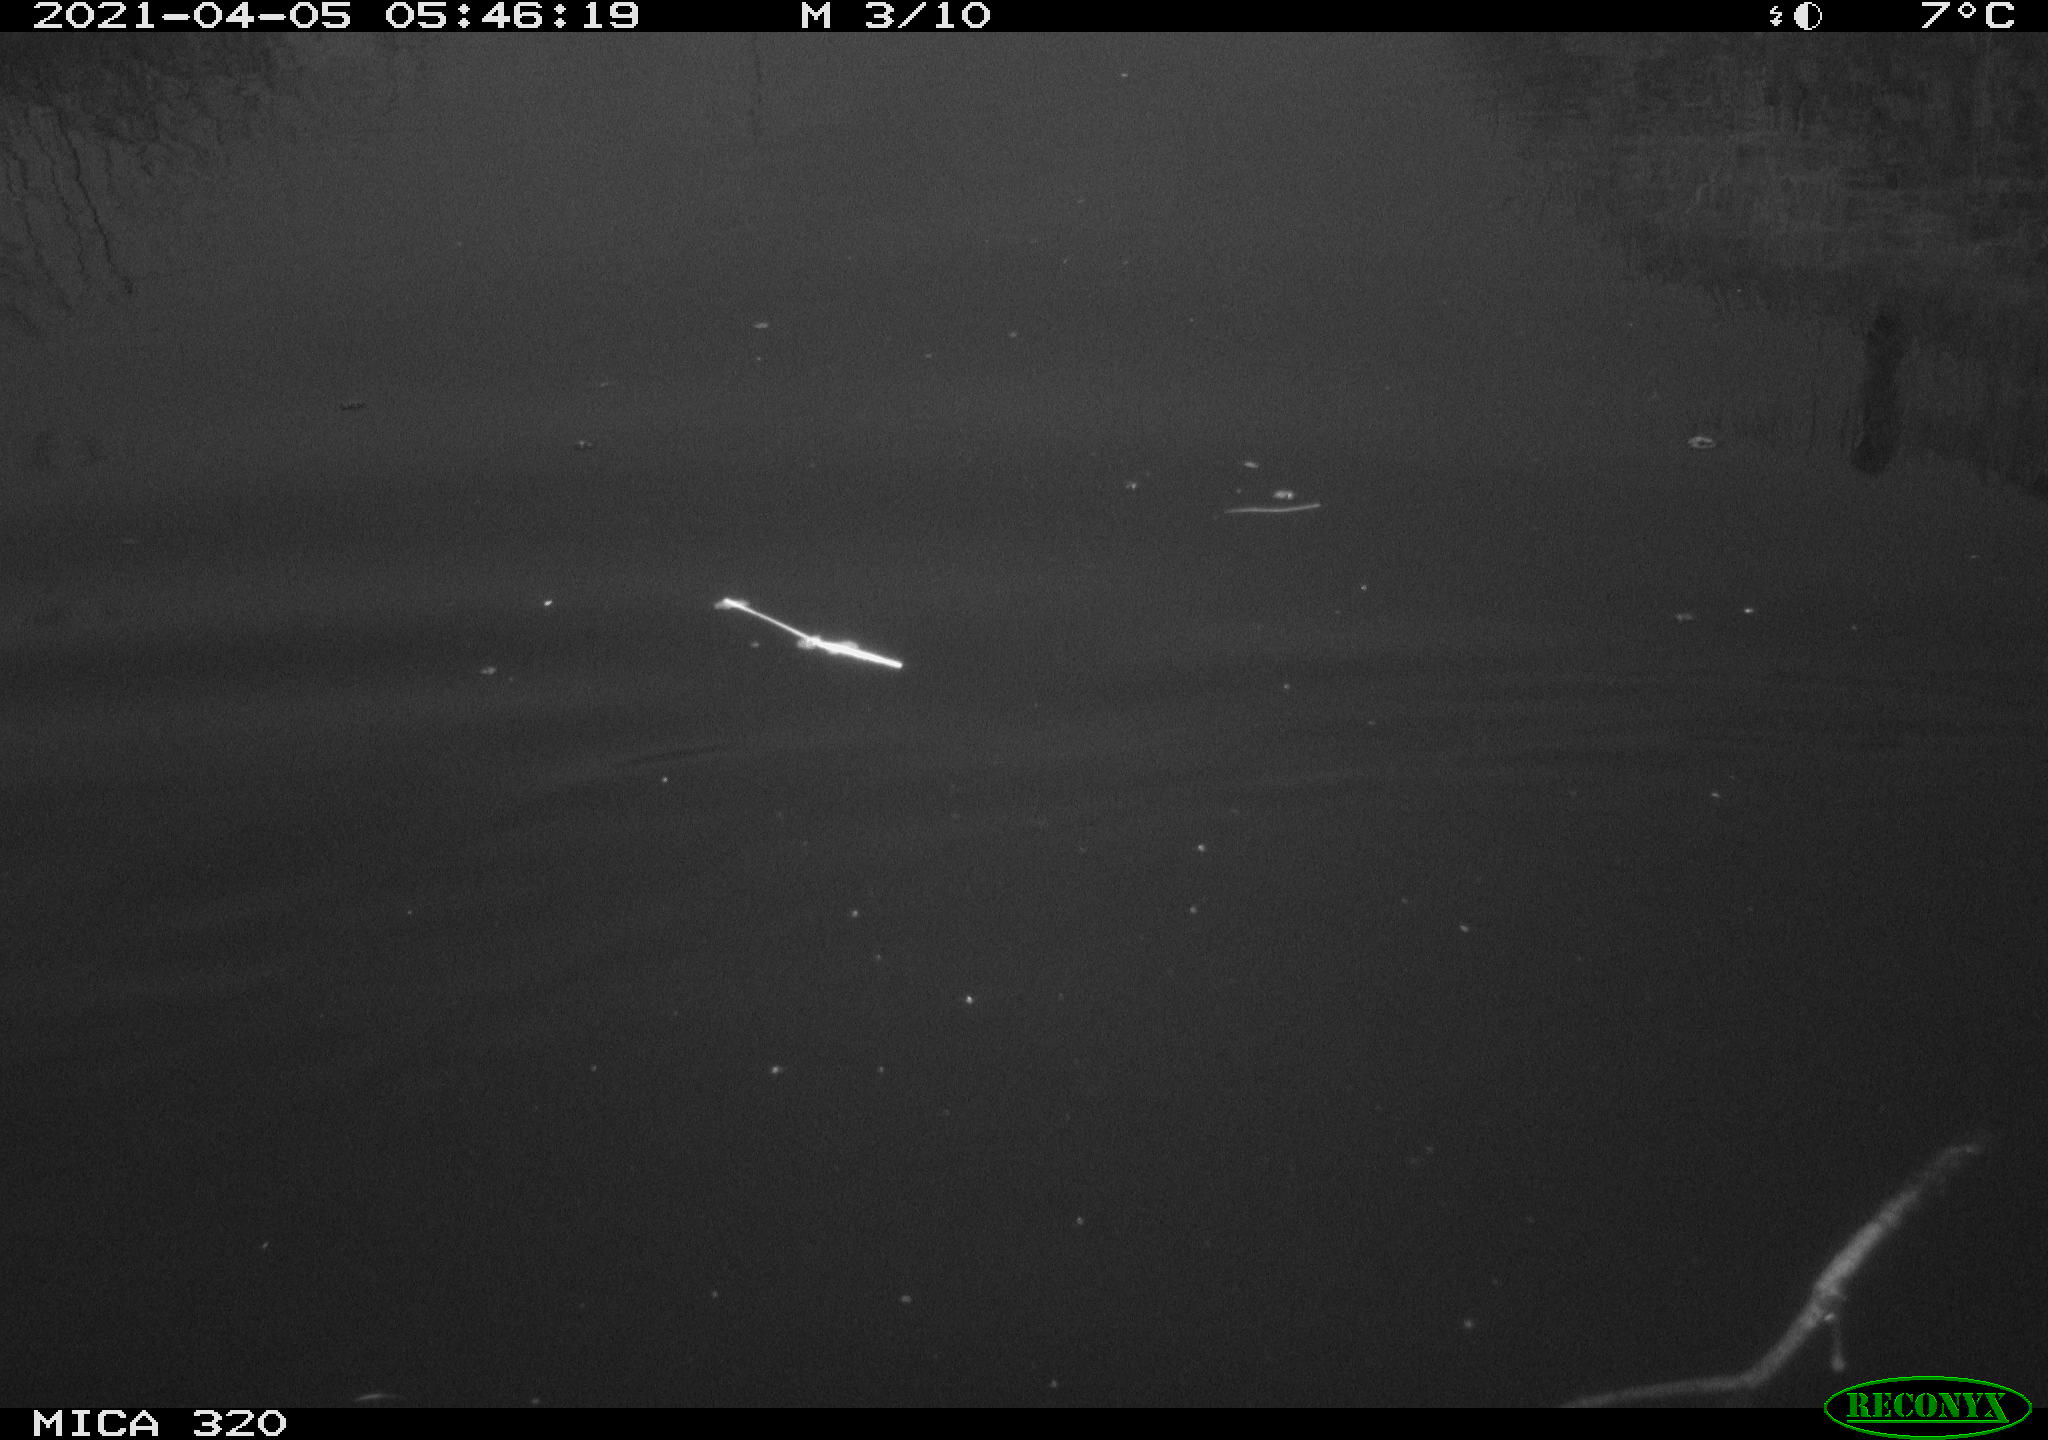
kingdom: Animalia
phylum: Chordata
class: Aves
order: Anseriformes
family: Anatidae
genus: Anas
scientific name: Anas platyrhynchos
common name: Mallard
